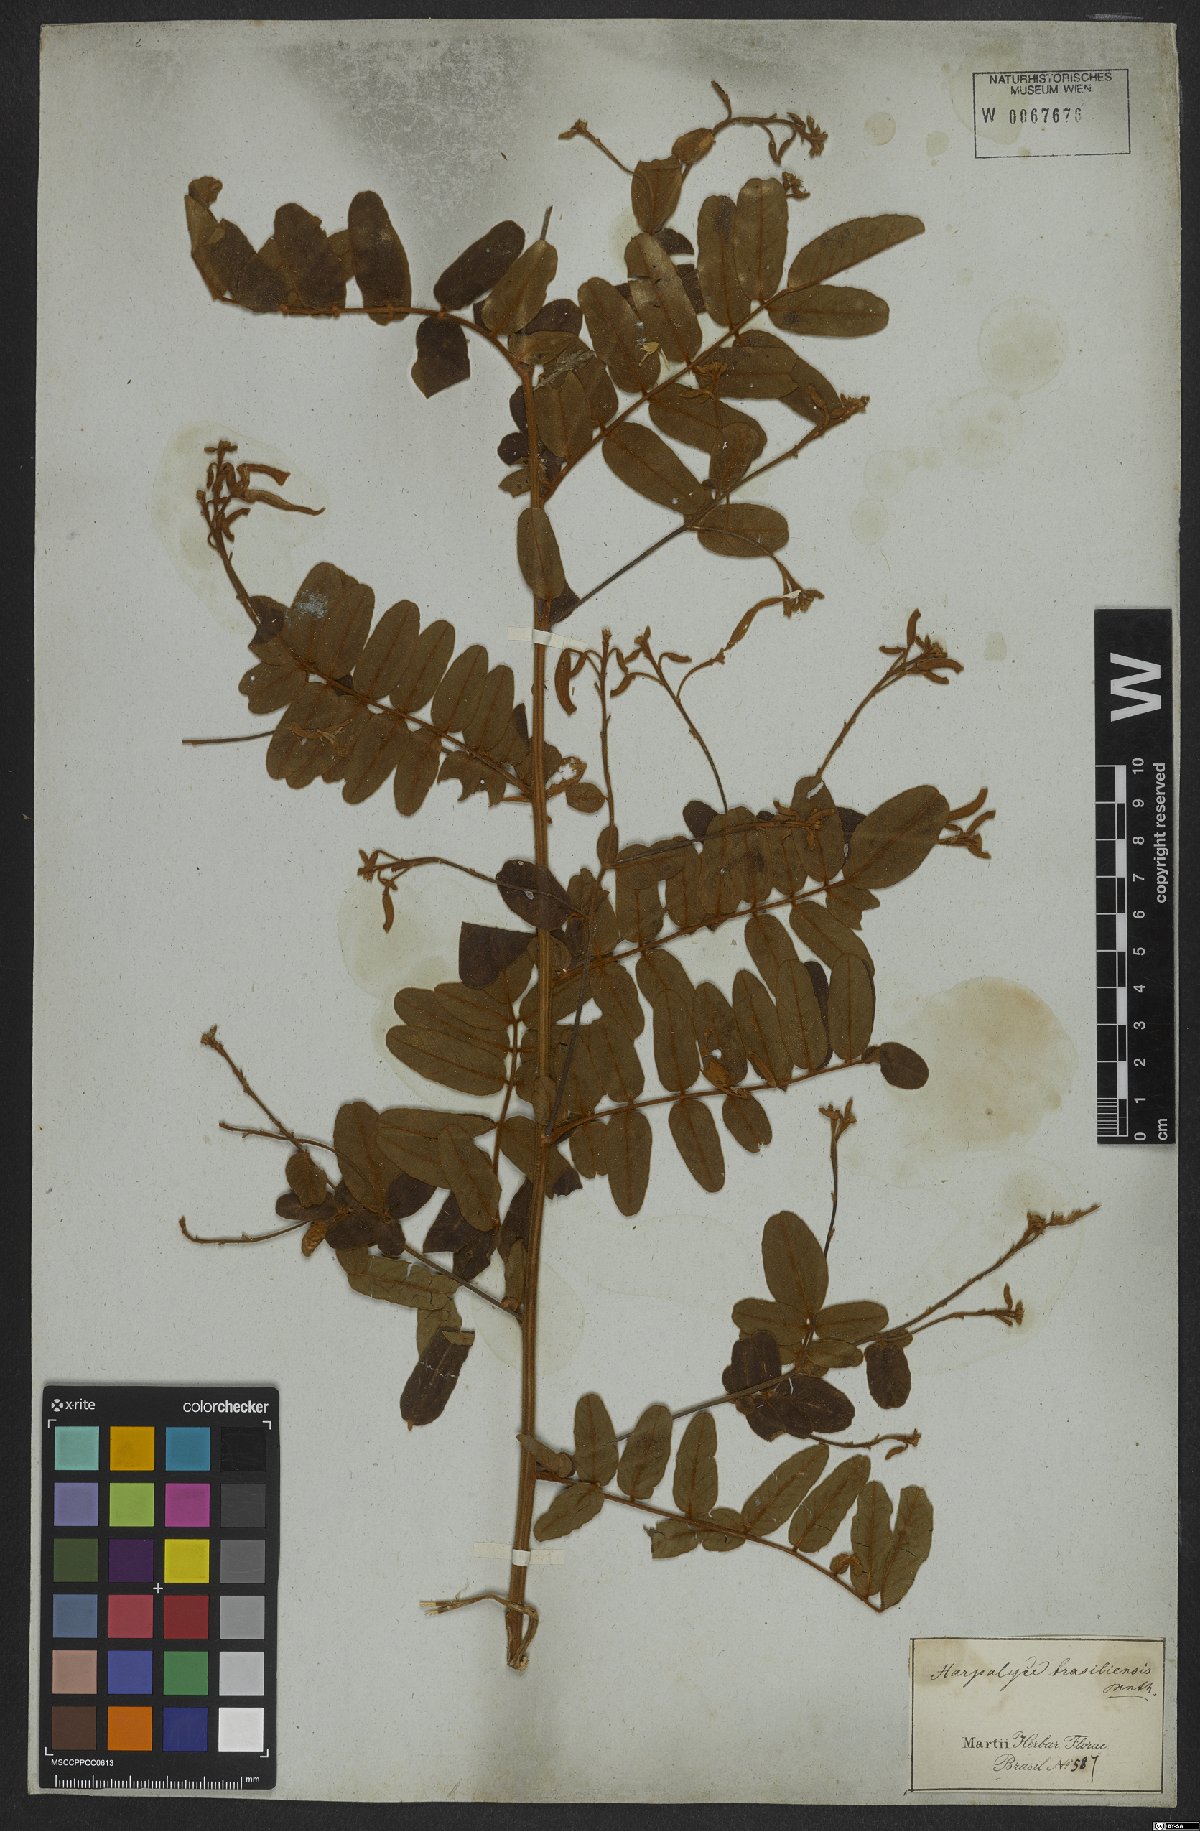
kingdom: Plantae
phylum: Tracheophyta
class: Magnoliopsida
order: Fabales
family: Fabaceae
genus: Harpalyce
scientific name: Harpalyce brasiliana
